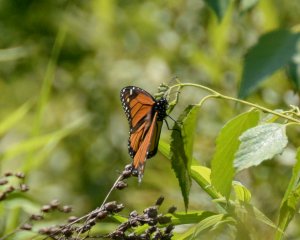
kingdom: Animalia
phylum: Arthropoda
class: Insecta
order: Lepidoptera
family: Nymphalidae
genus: Danaus
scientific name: Danaus plexippus
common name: Monarch
